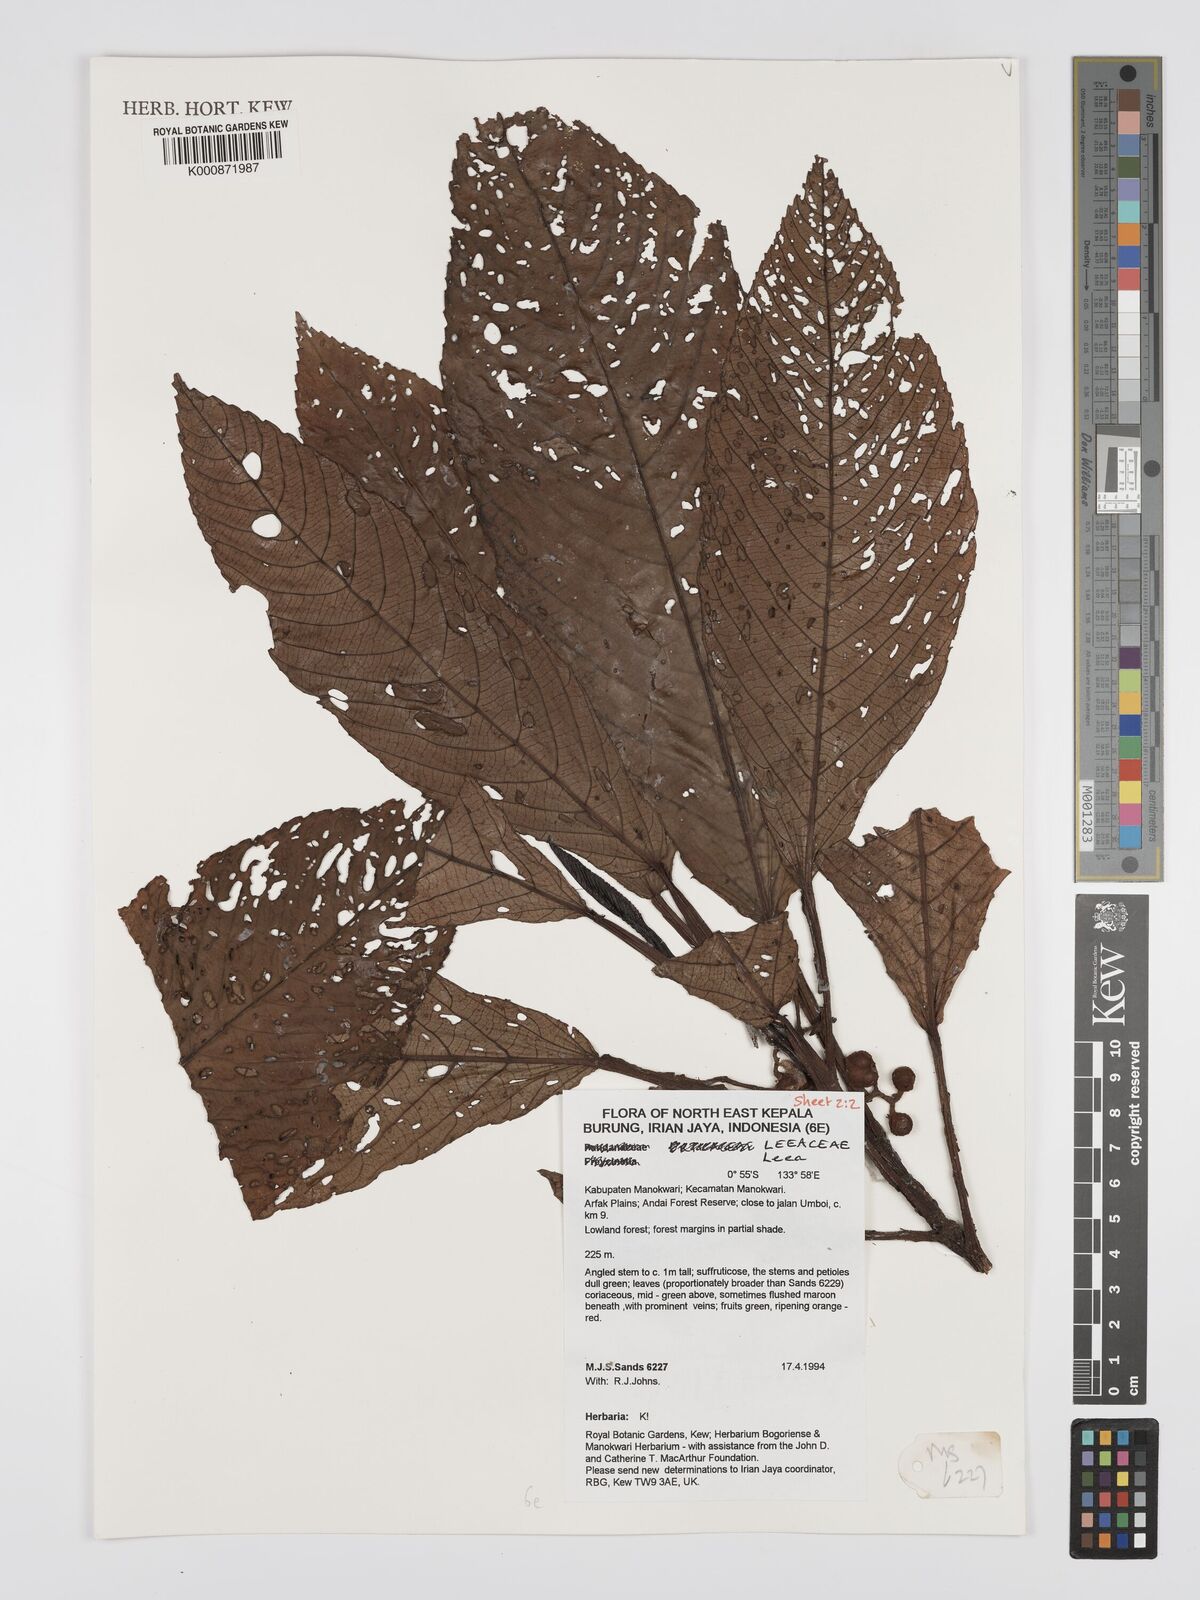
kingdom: Plantae
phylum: Tracheophyta
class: Magnoliopsida
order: Vitales
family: Vitaceae
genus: Leea
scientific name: Leea
